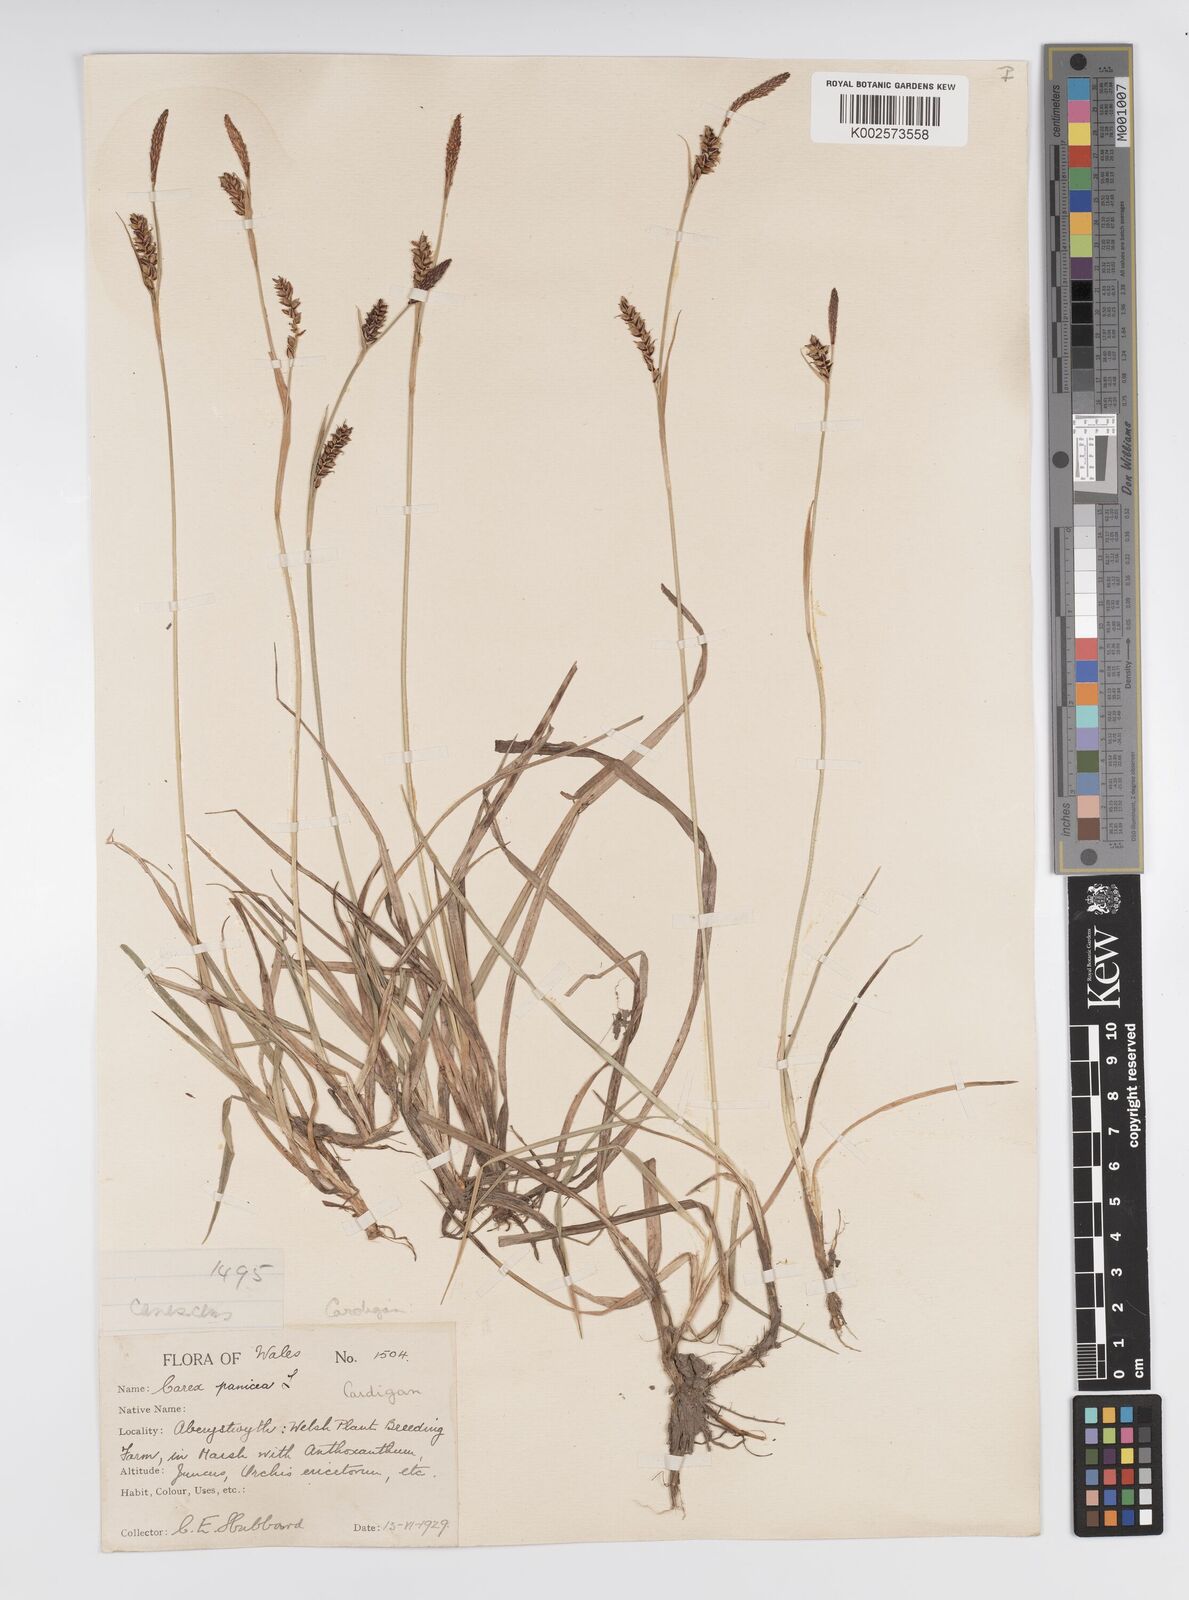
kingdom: Plantae
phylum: Tracheophyta
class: Liliopsida
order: Poales
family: Cyperaceae
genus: Carex
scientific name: Carex panicea
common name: Carnation sedge
